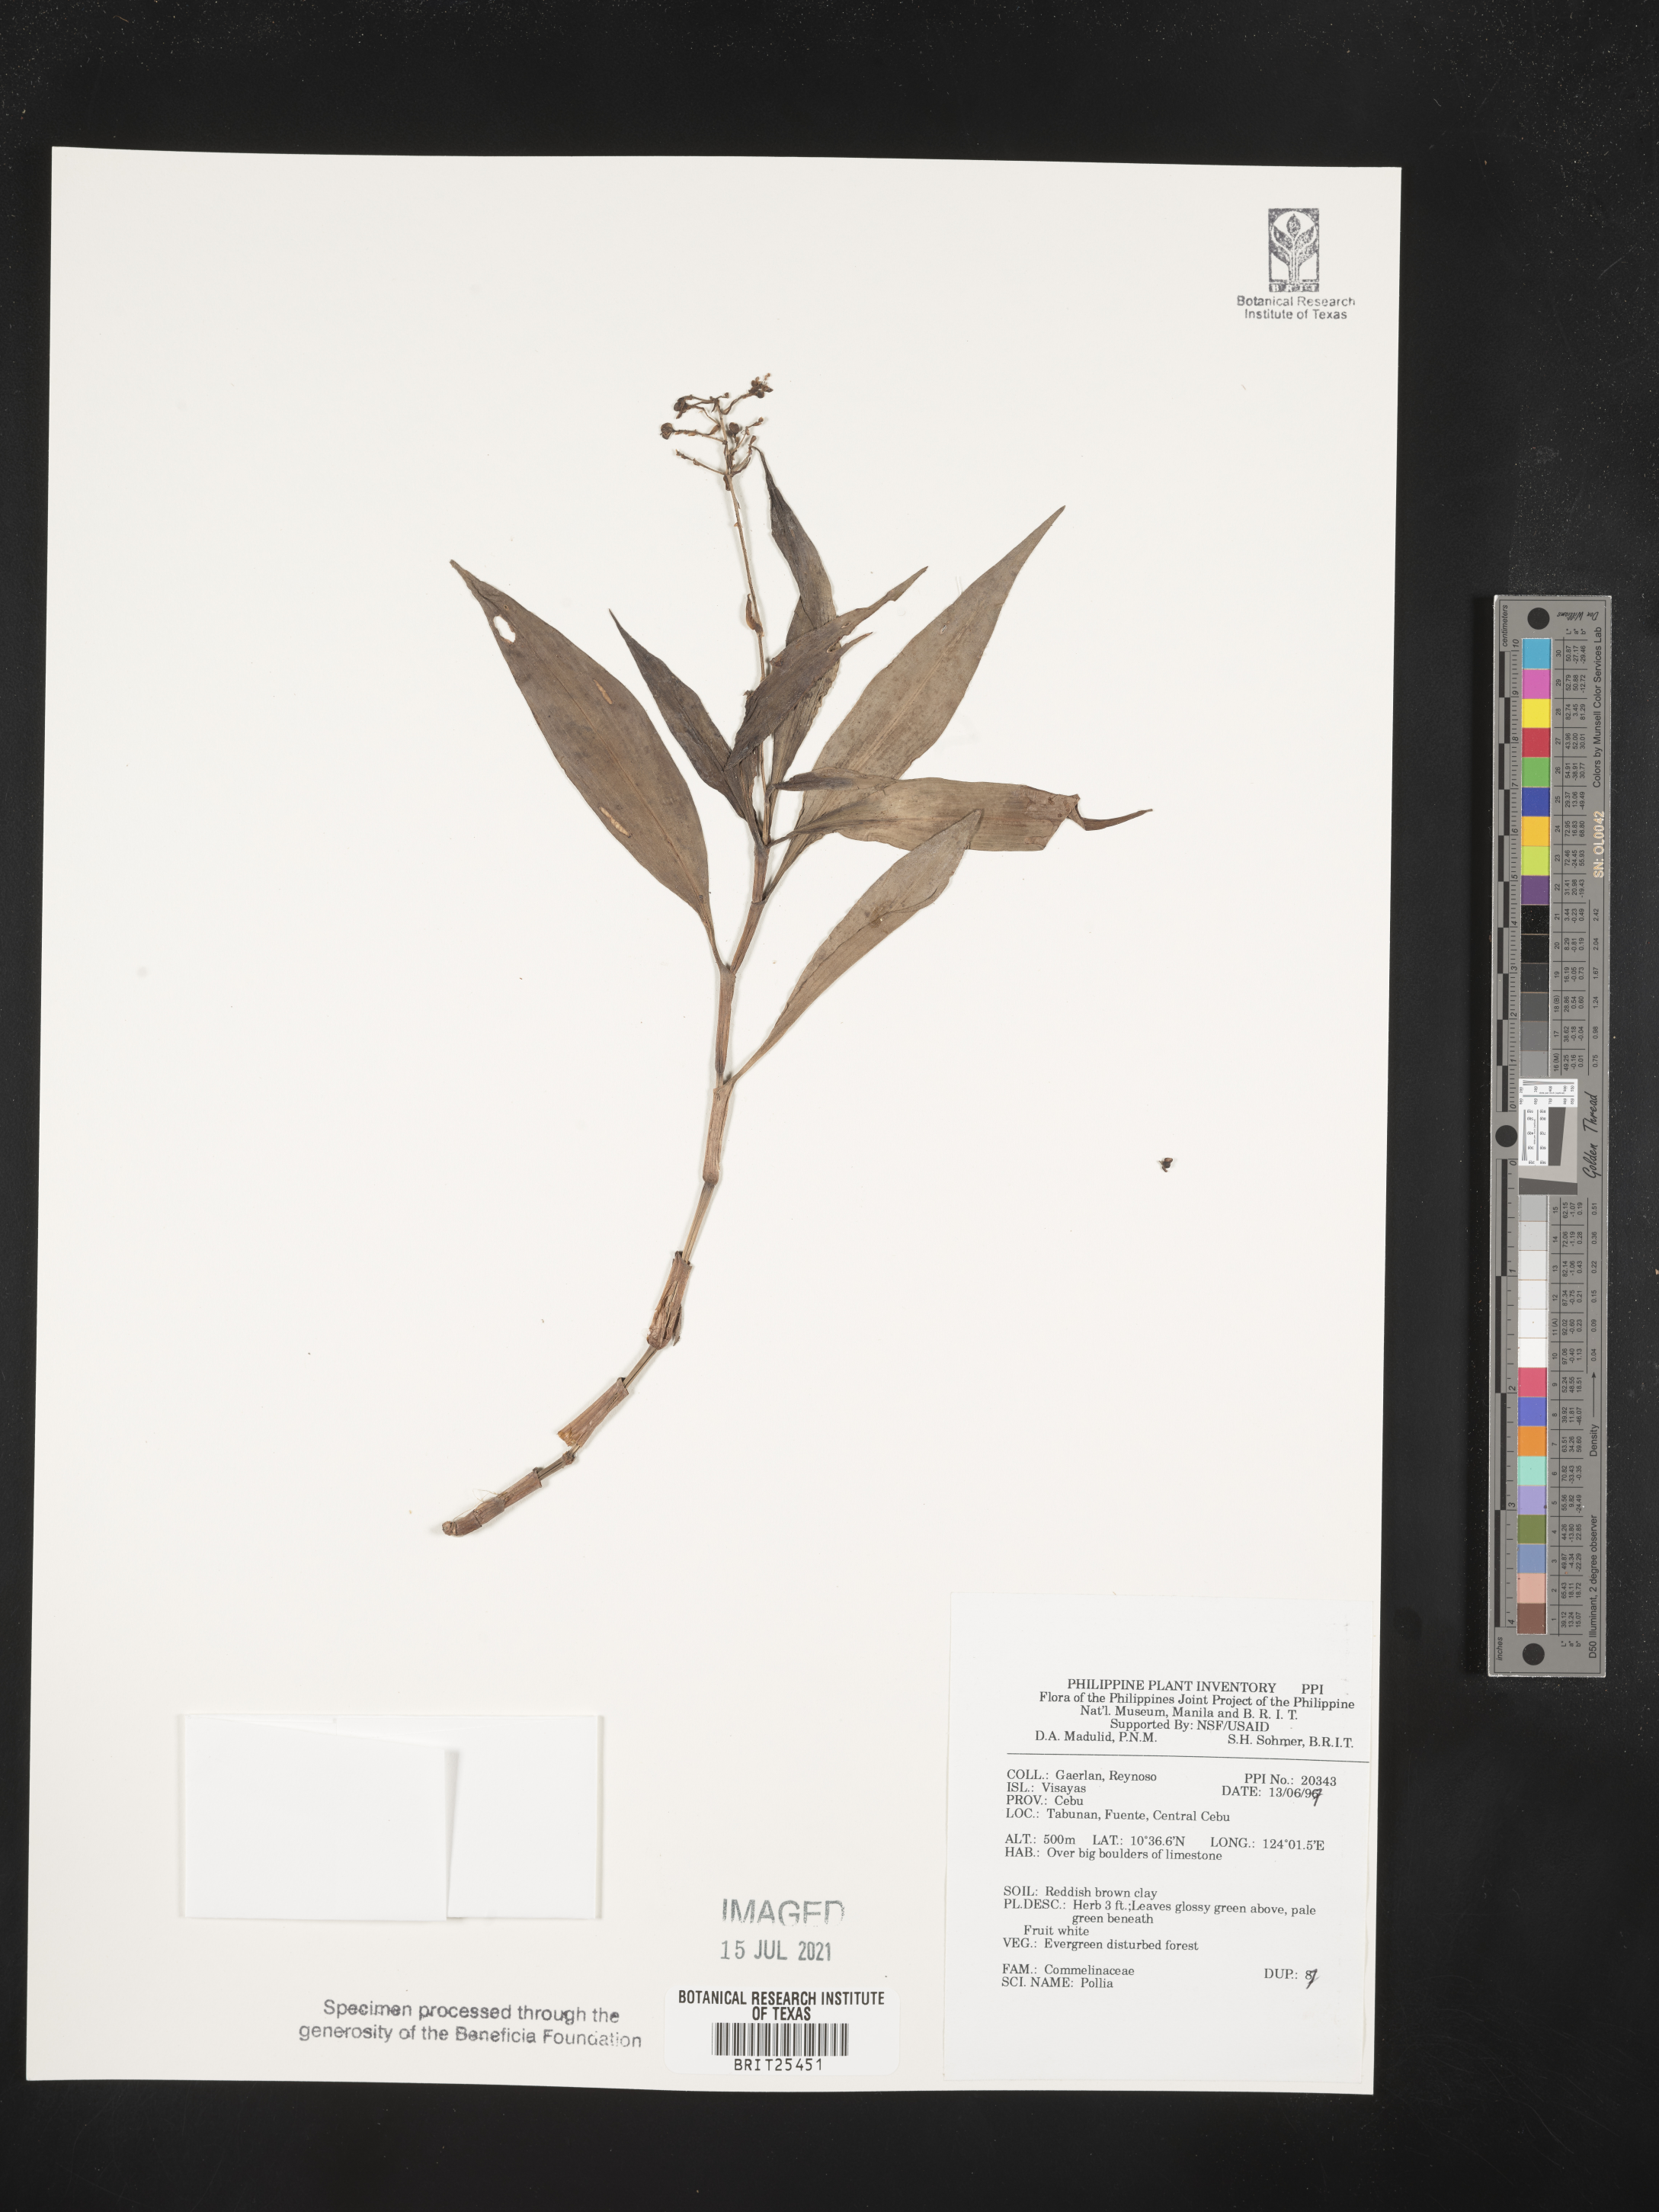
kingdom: Plantae
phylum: Tracheophyta
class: Liliopsida
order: Commelinales
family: Commelinaceae
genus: Pollia
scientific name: Pollia
